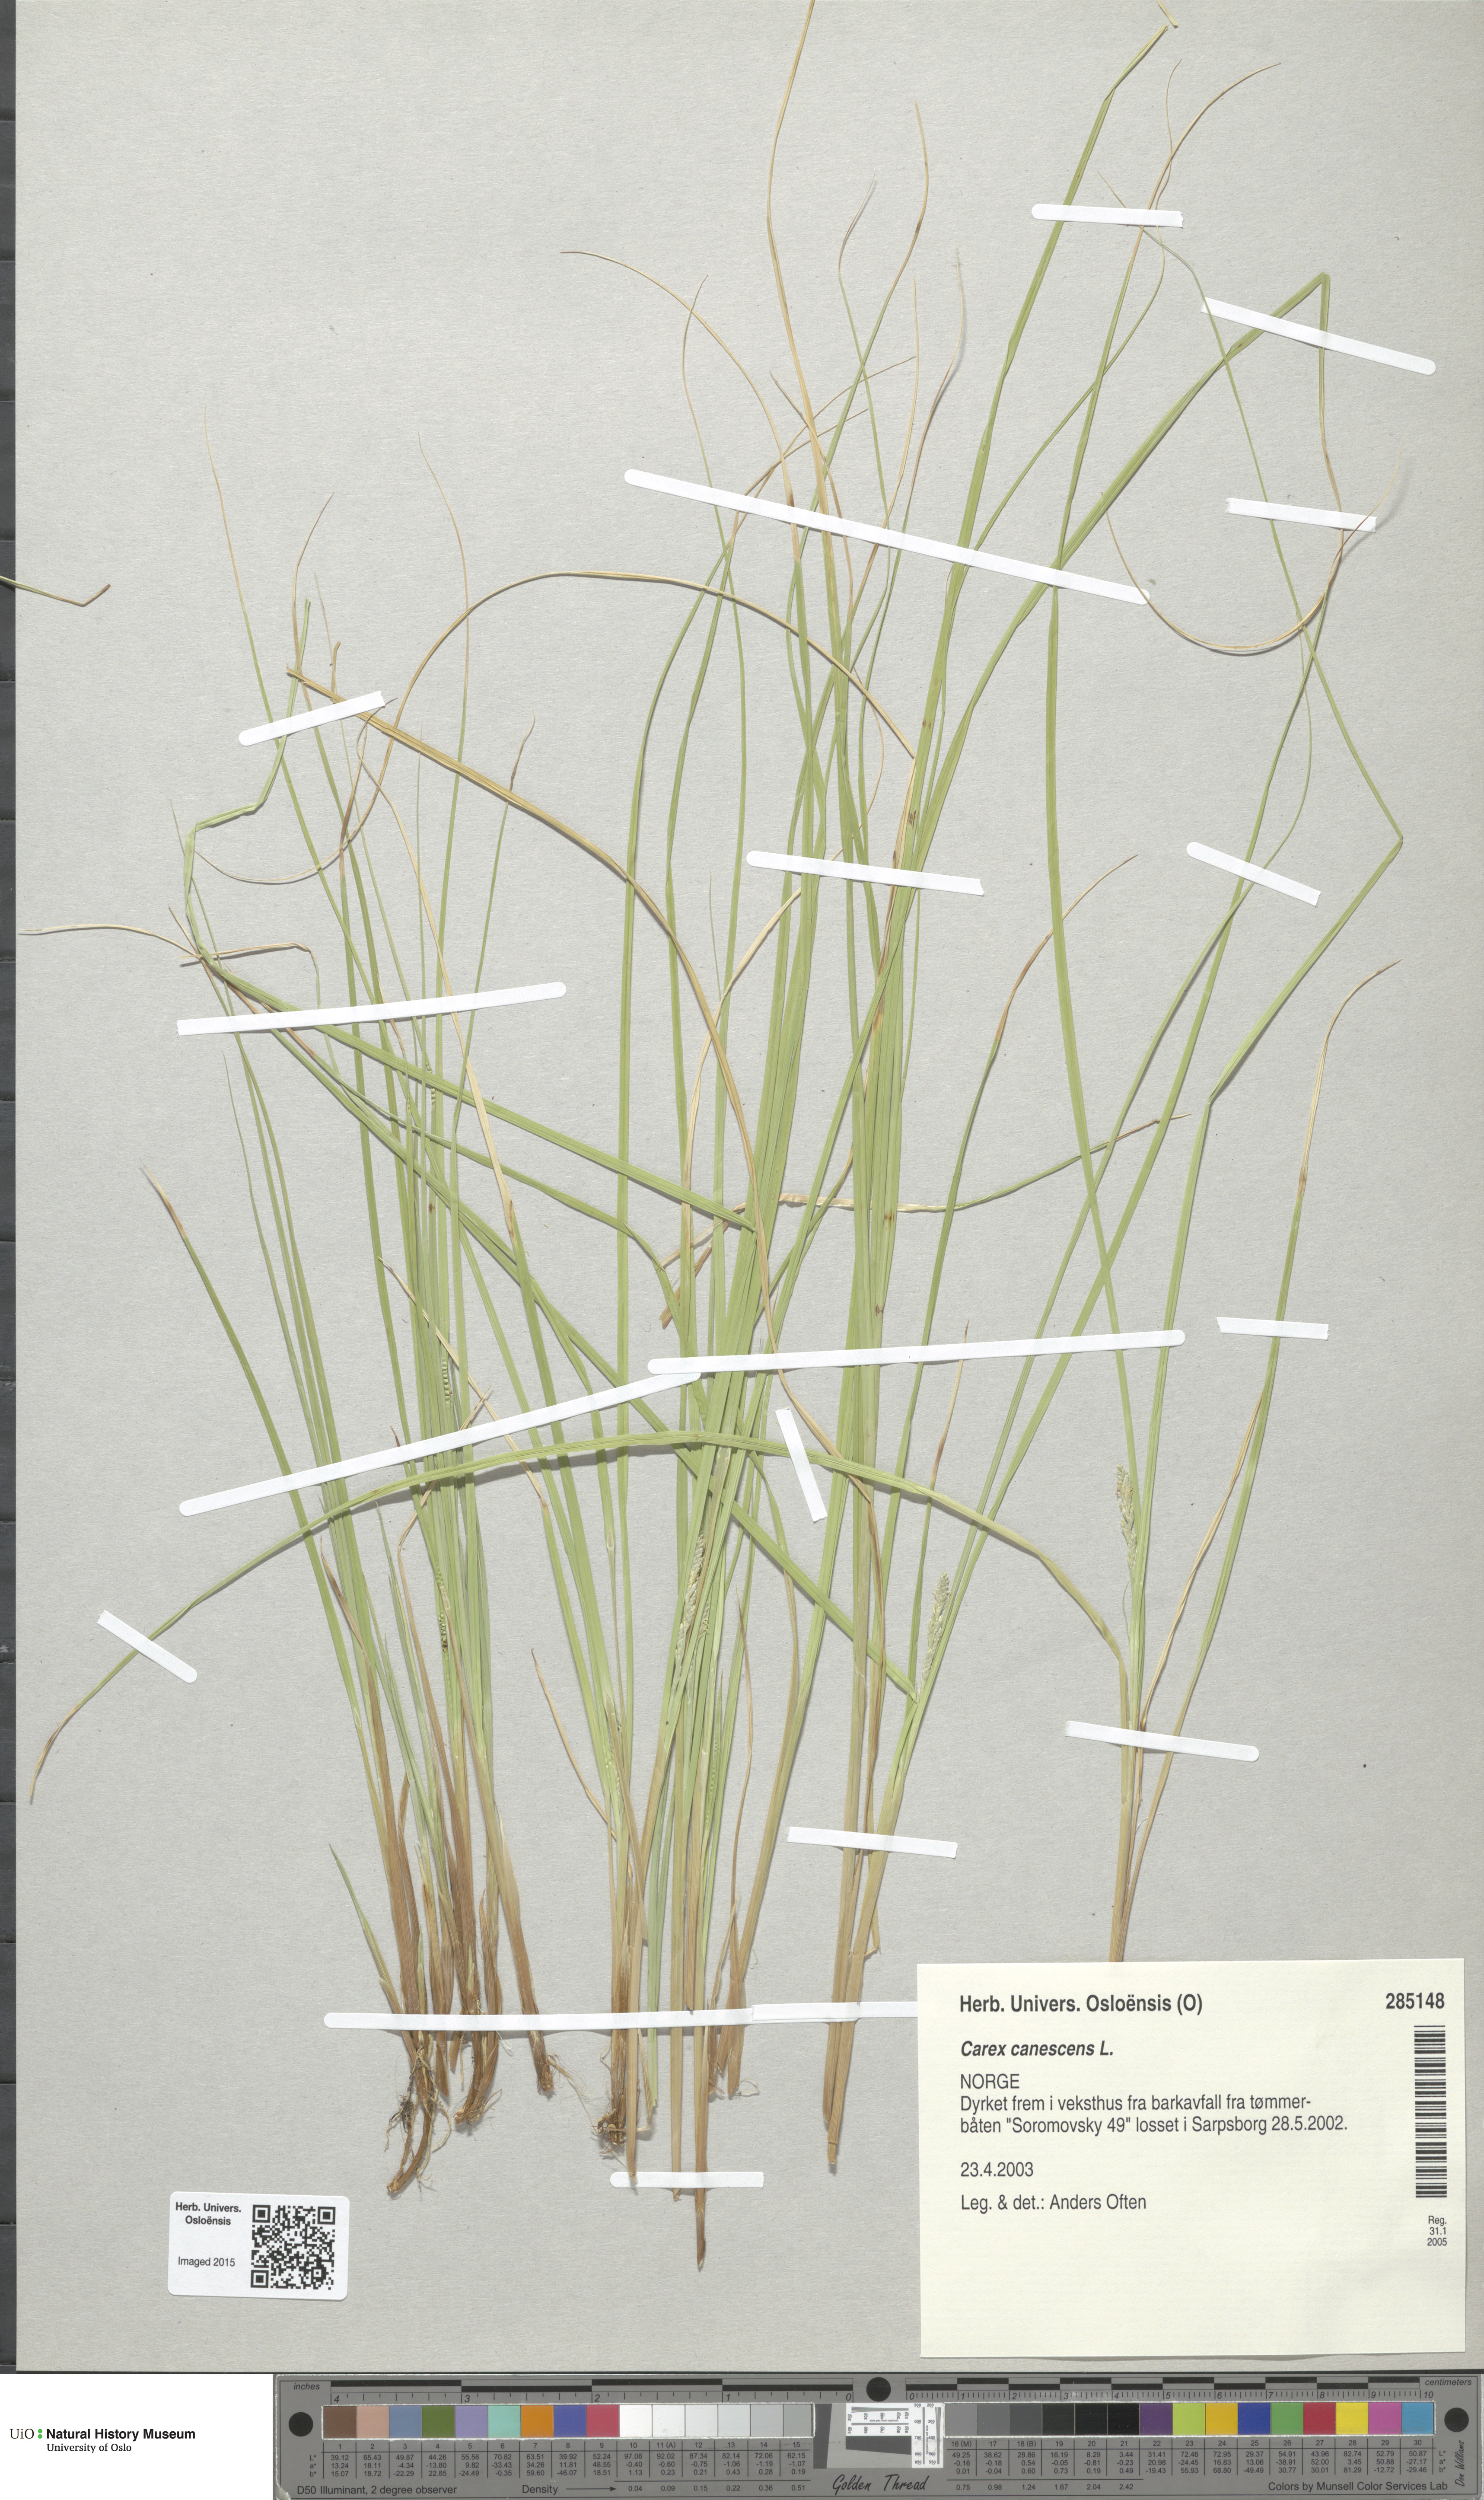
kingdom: Plantae
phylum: Tracheophyta
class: Liliopsida
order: Poales
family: Cyperaceae
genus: Carex
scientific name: Carex canescens
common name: White sedge
